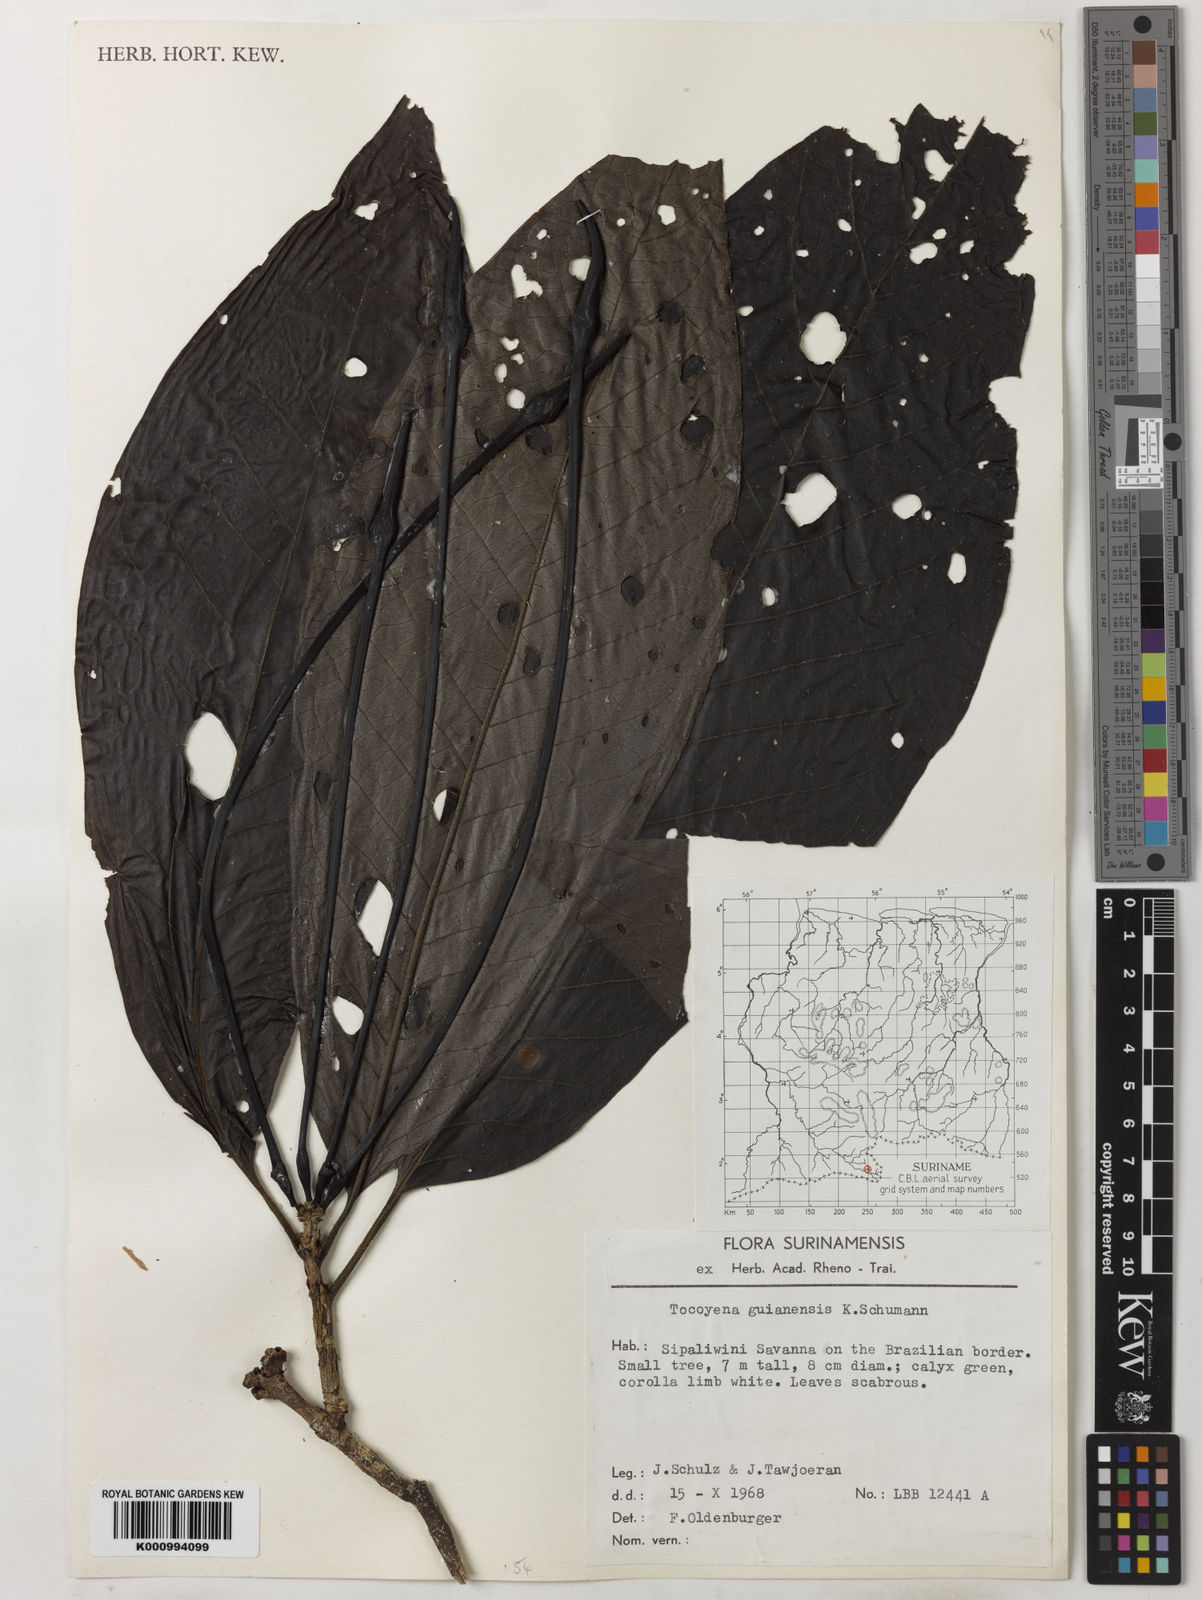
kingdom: Plantae
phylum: Tracheophyta
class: Magnoliopsida
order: Gentianales
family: Rubiaceae
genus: Tocoyena
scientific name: Tocoyena formosa
